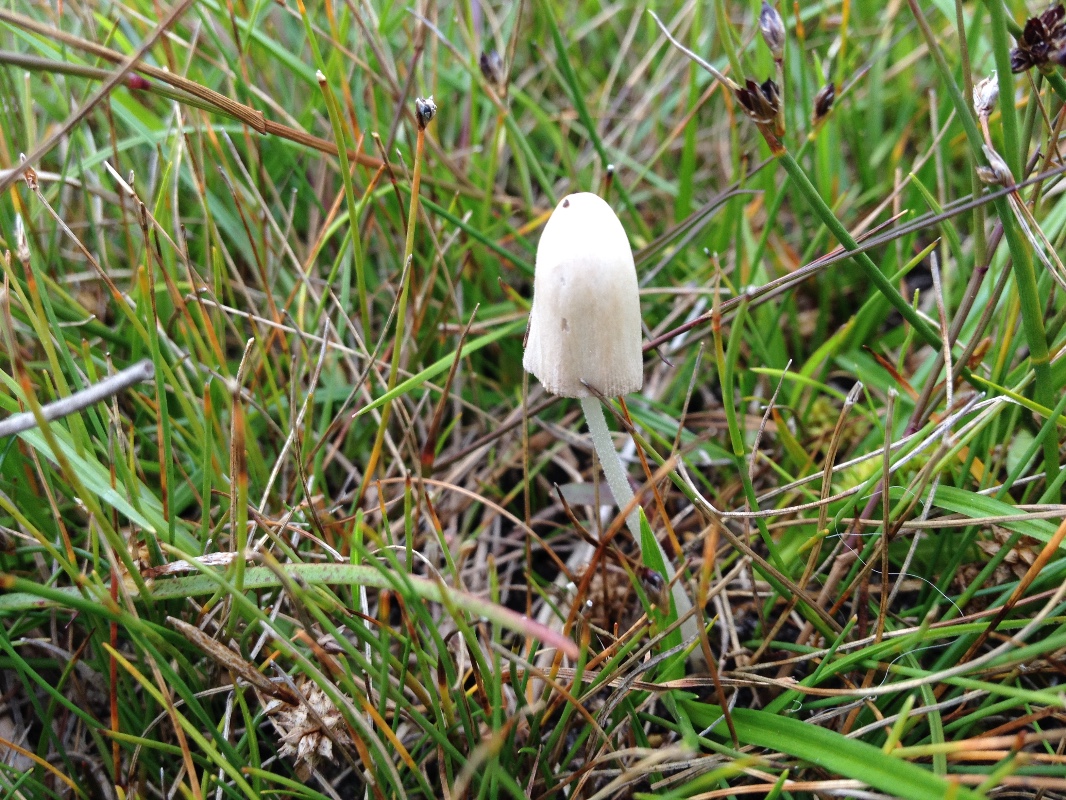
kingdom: Fungi
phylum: Basidiomycota
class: Agaricomycetes
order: Agaricales
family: Bolbitiaceae
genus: Conocybe
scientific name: Conocybe apala
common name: mælkehvid keglehat
